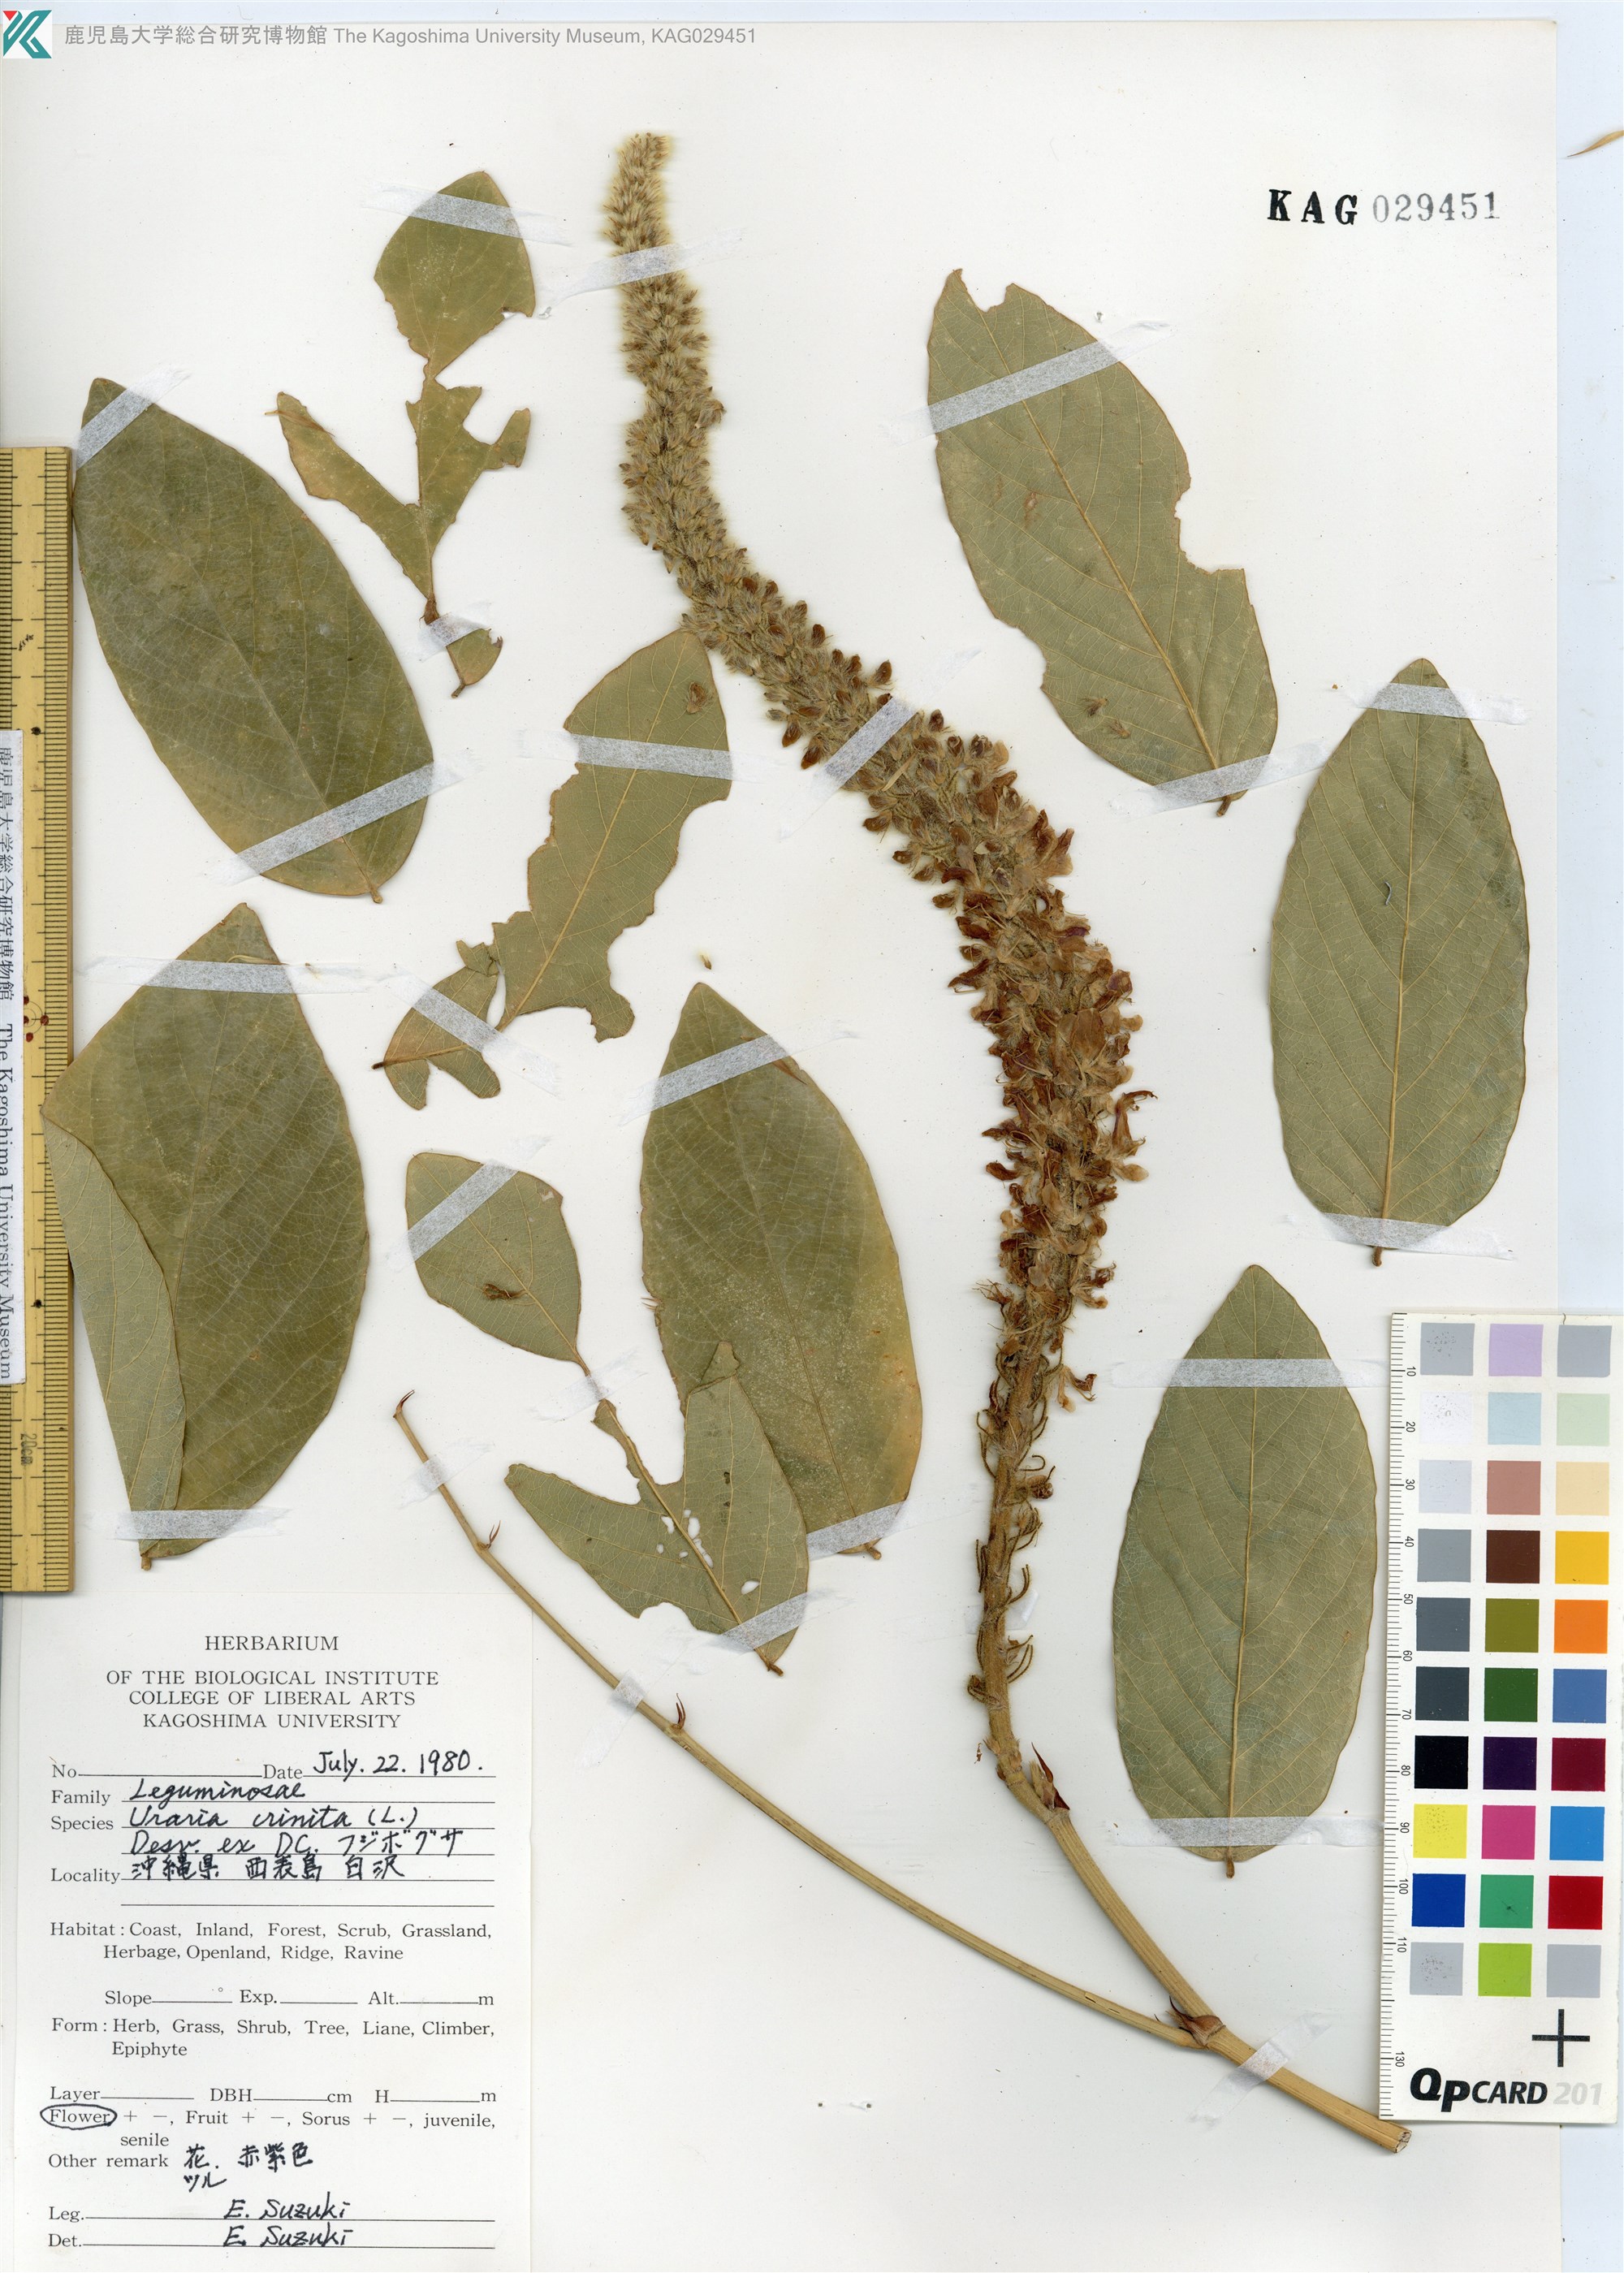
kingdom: Plantae
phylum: Tracheophyta
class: Magnoliopsida
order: Fabales
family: Fabaceae
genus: Uraria
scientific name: Uraria crinita
